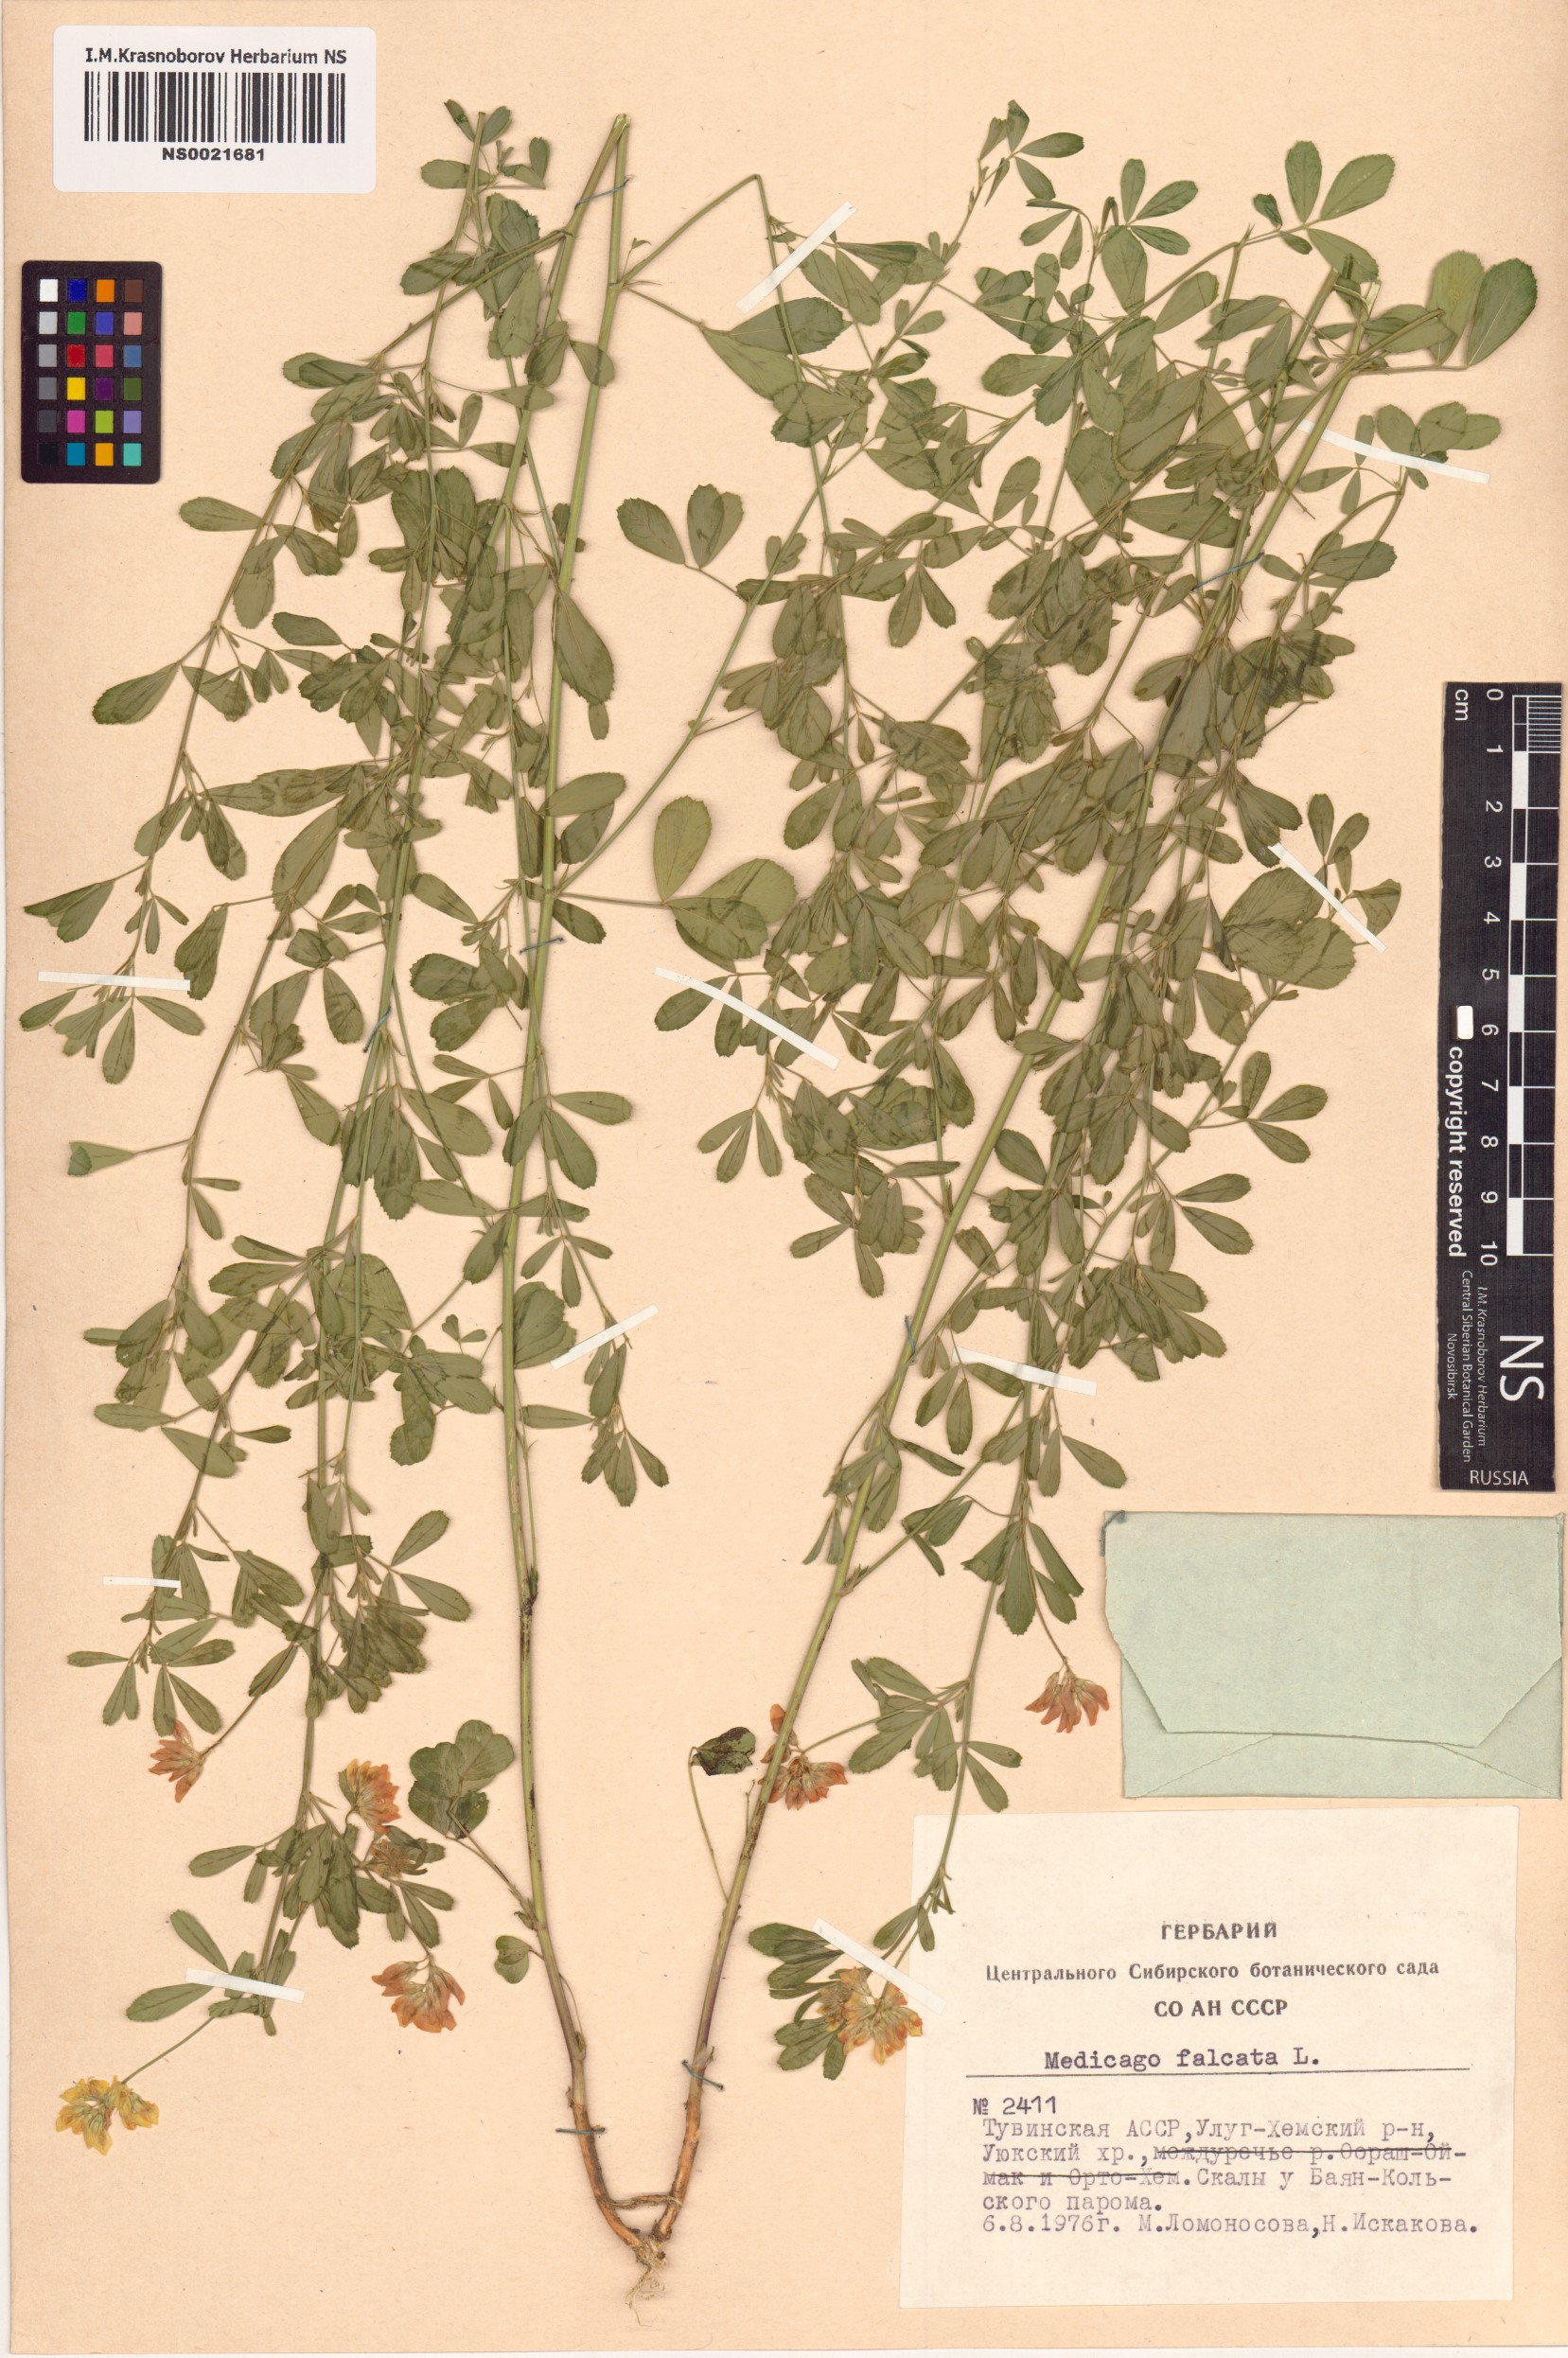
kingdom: Plantae
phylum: Tracheophyta
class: Magnoliopsida
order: Fabales
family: Fabaceae
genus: Medicago
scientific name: Medicago falcata
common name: Sickle medick
